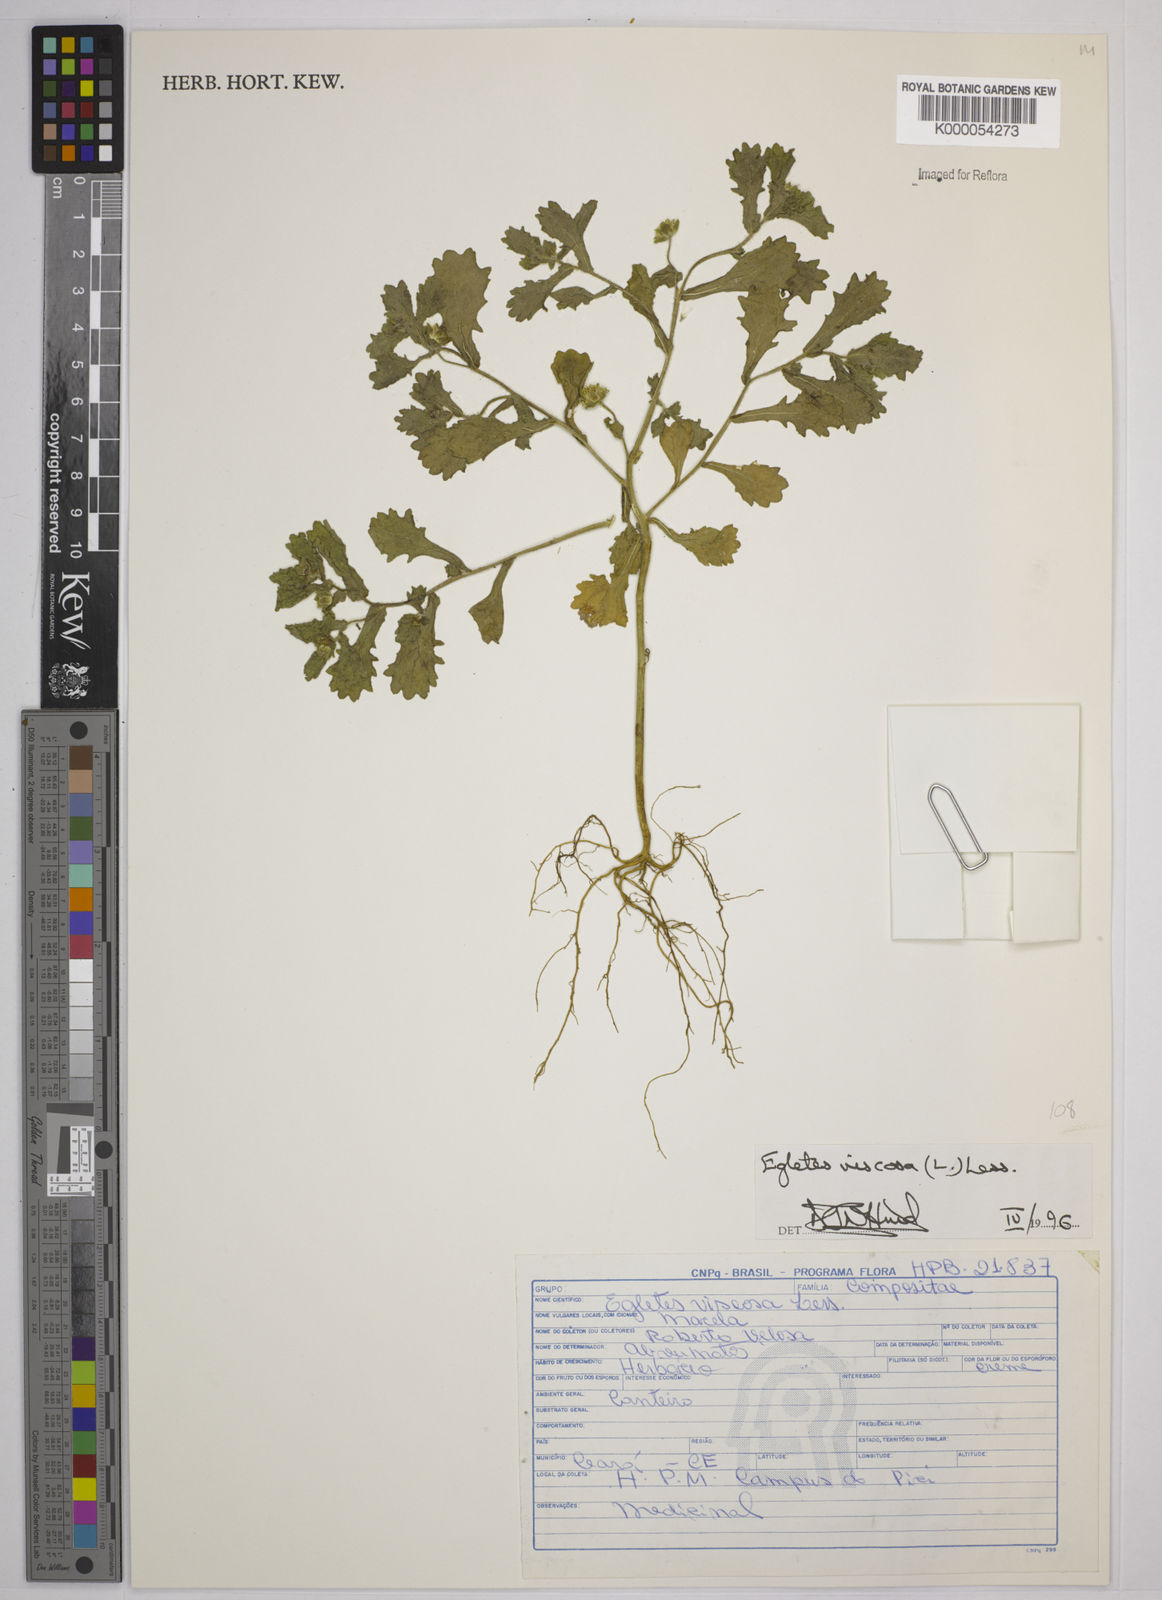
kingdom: Plantae
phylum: Tracheophyta
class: Magnoliopsida
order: Asterales
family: Asteraceae
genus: Egletes
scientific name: Egletes viscosa
